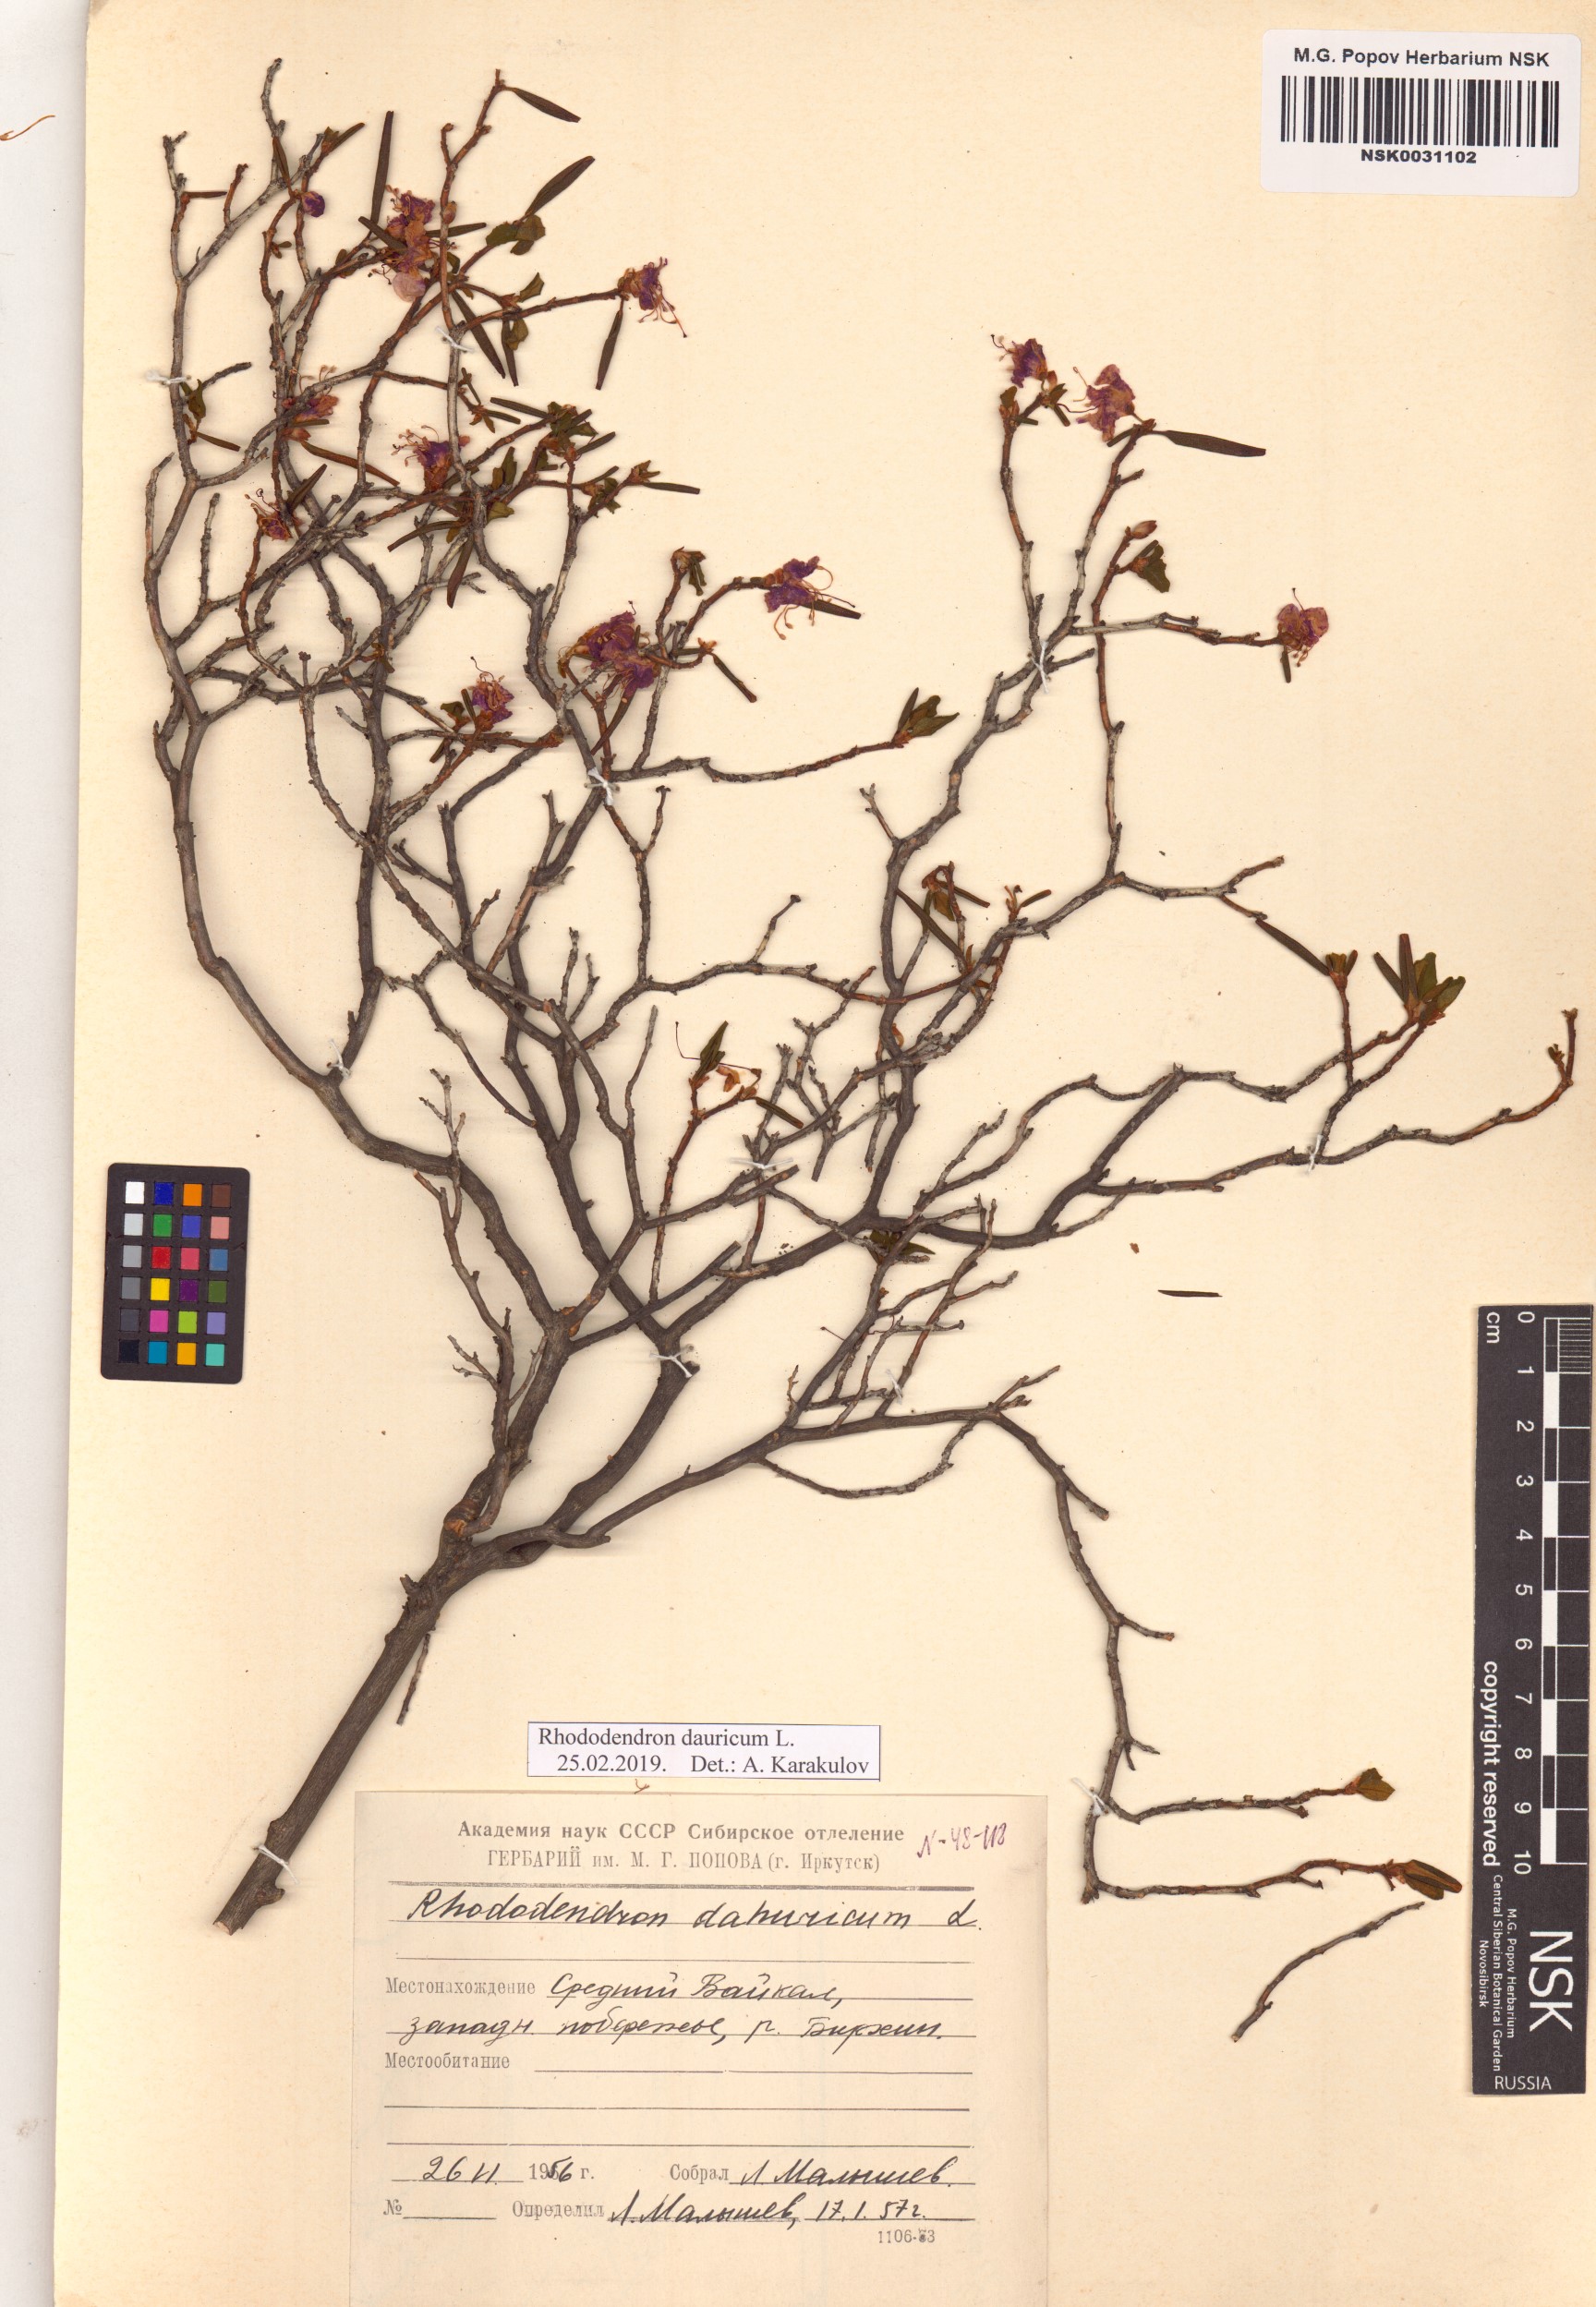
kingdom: Plantae
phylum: Tracheophyta
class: Magnoliopsida
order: Ericales
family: Ericaceae
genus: Rhododendron
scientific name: Rhododendron dauricum
